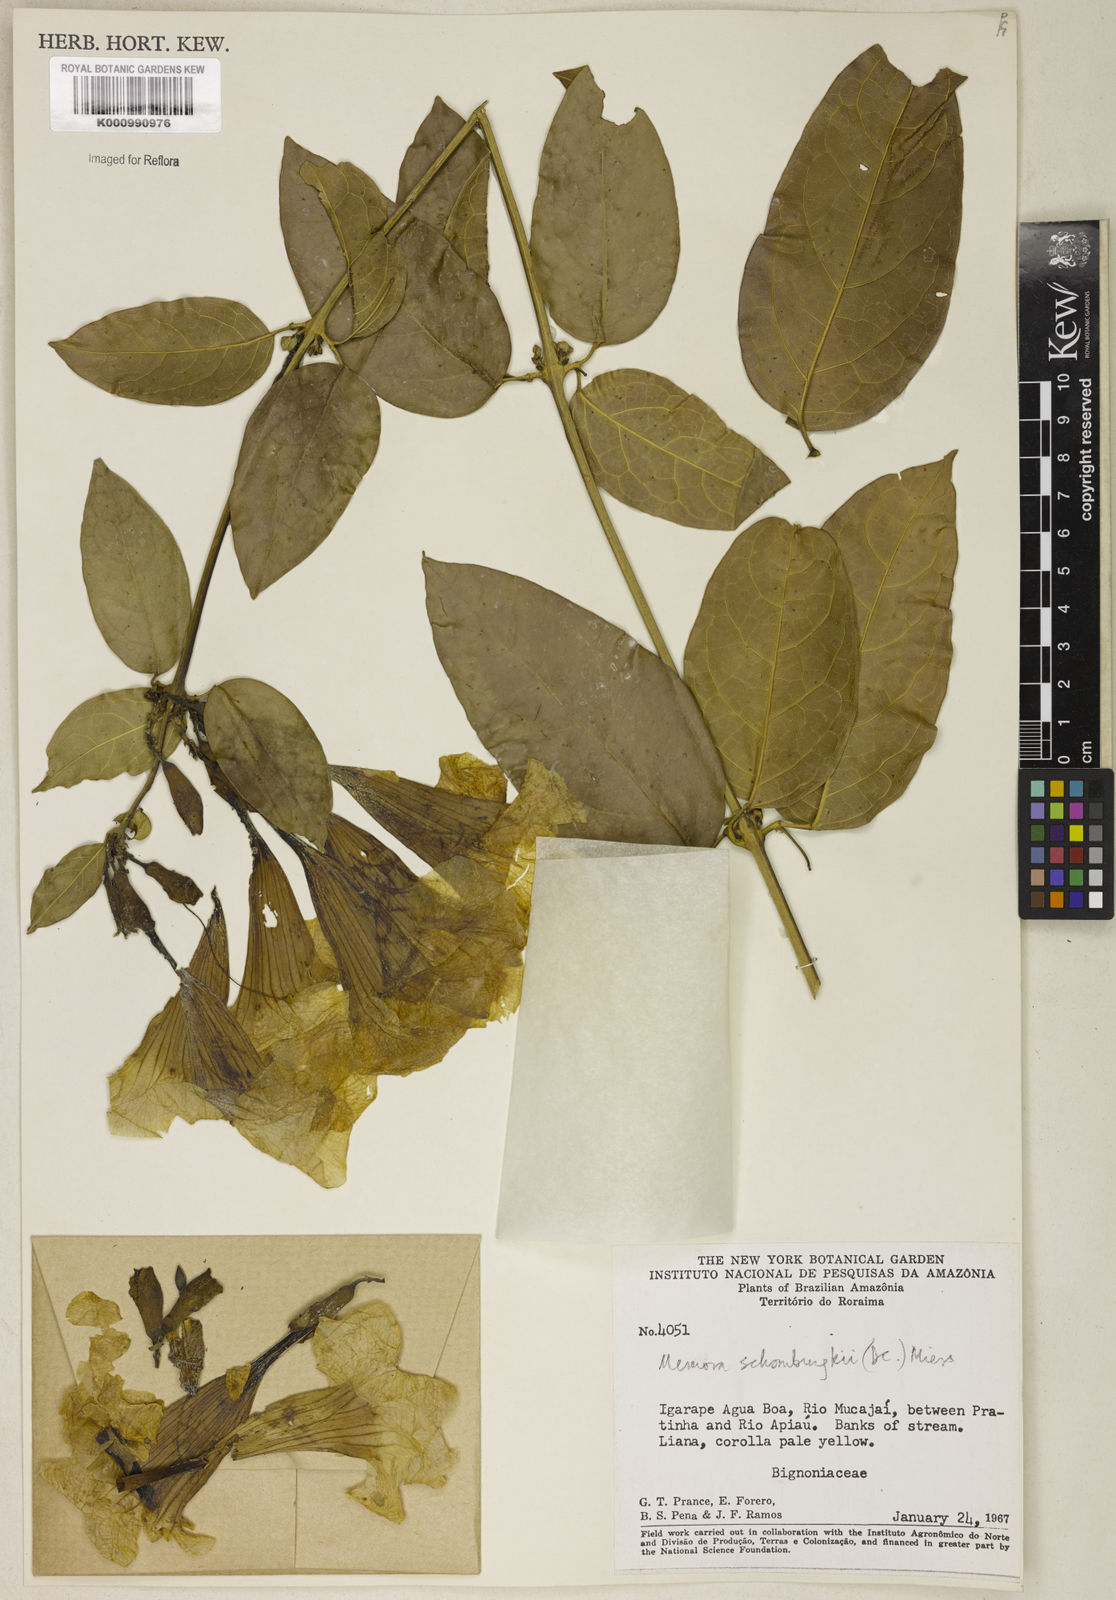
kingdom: Plantae
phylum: Tracheophyta
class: Magnoliopsida
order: Lamiales
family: Bignoniaceae
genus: Adenocalymma
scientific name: Adenocalymma schomburgkii
